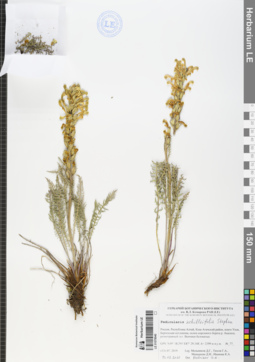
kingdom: Plantae
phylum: Tracheophyta
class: Magnoliopsida
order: Lamiales
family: Orobanchaceae
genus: Pedicularis
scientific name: Pedicularis achilleifolia
